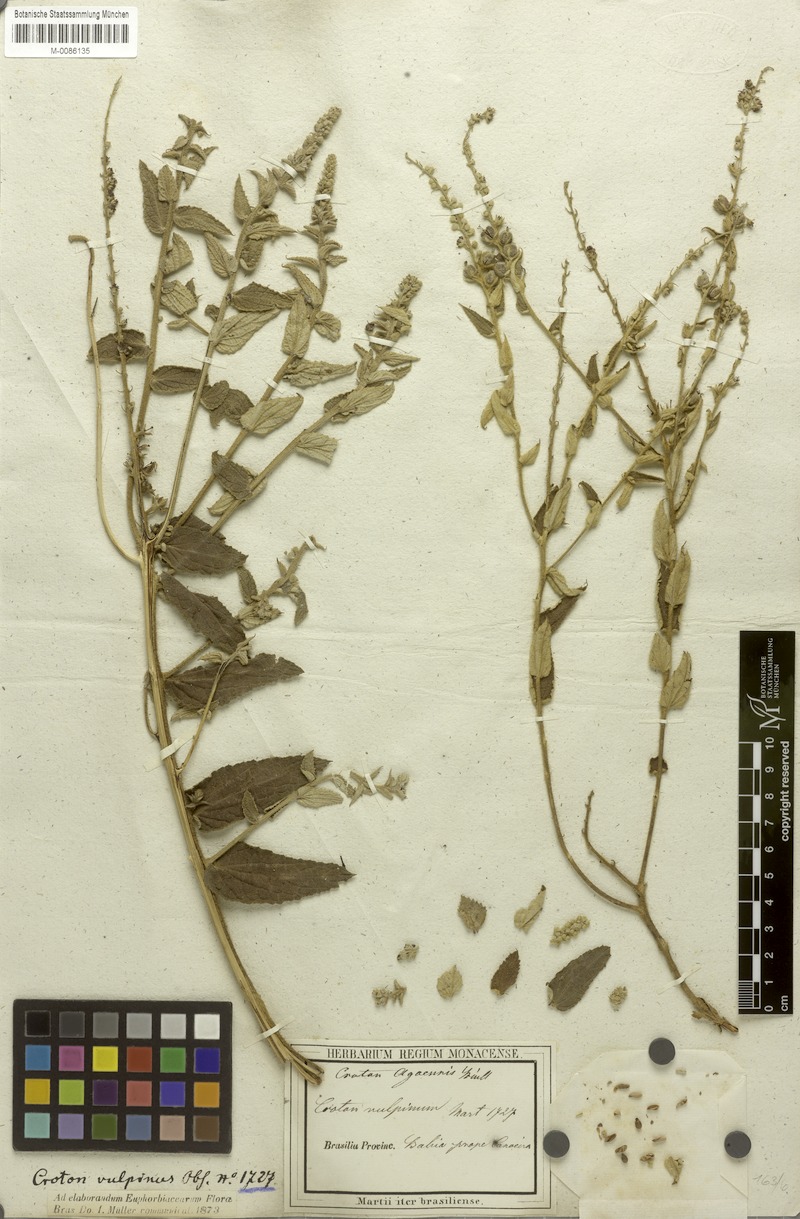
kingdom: Plantae
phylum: Tracheophyta
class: Magnoliopsida
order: Malpighiales
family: Euphorbiaceae
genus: Croton
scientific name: Croton agoensis
